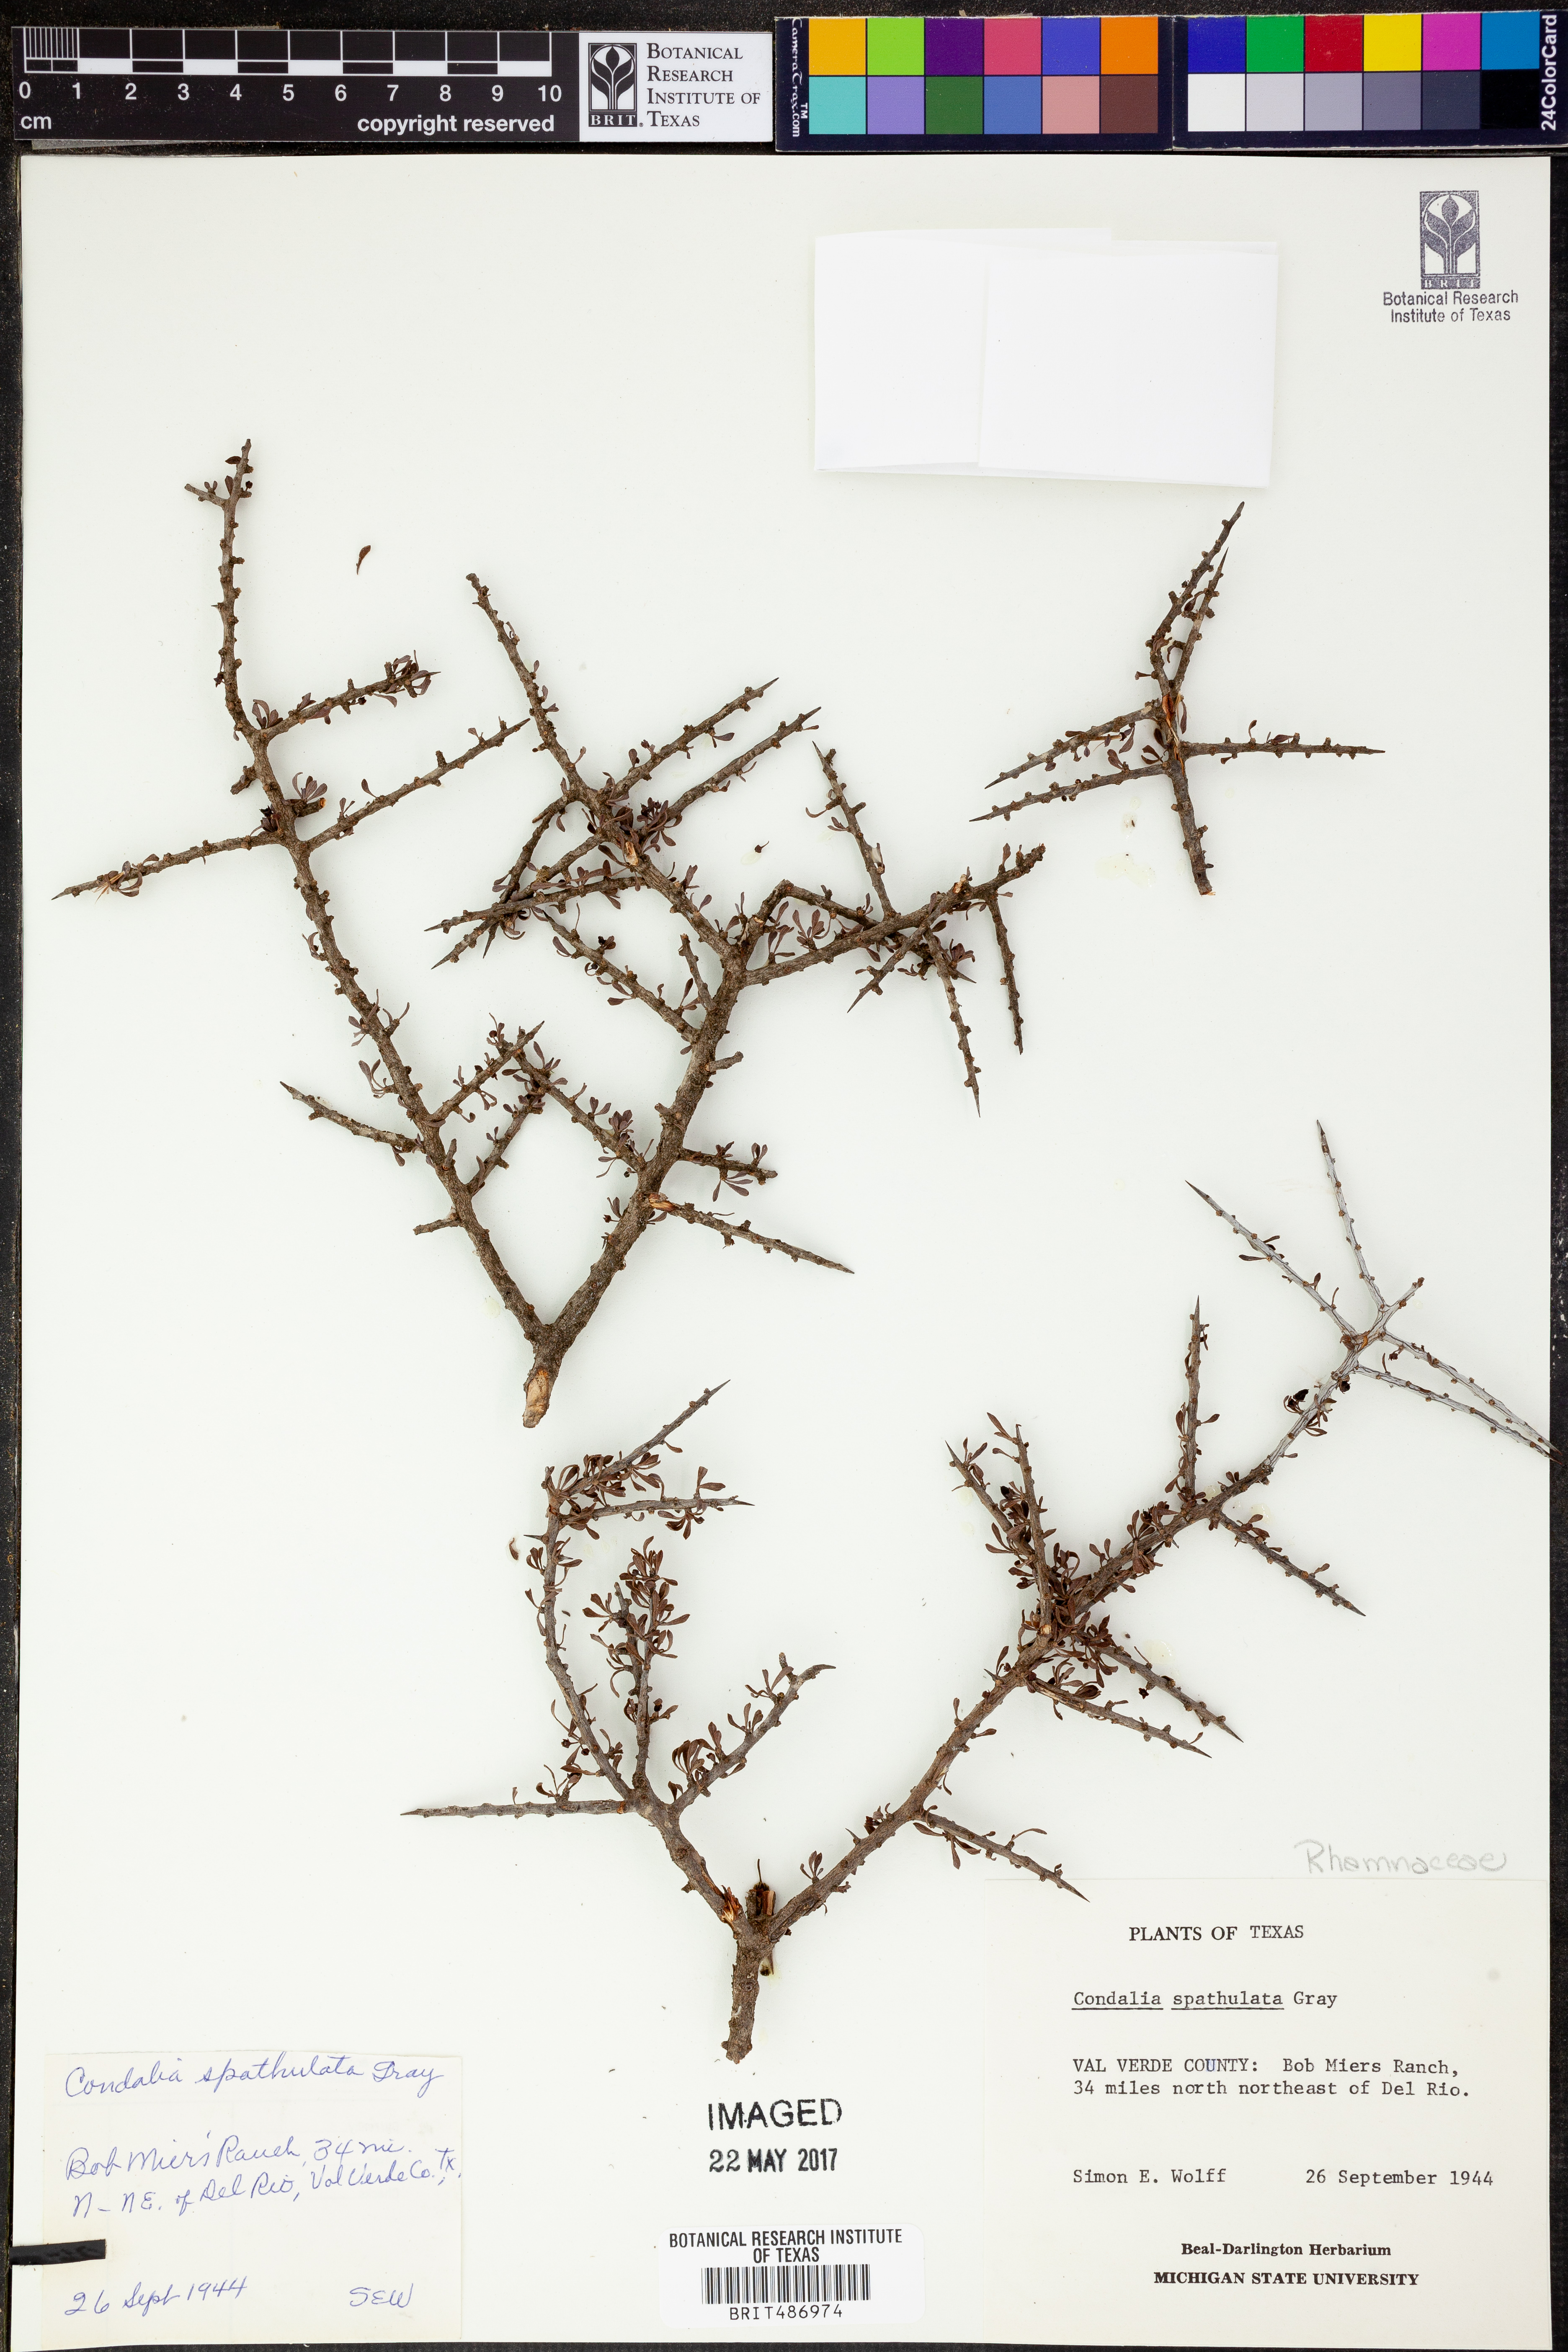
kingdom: Plantae
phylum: Tracheophyta
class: Magnoliopsida
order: Rosales
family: Rhamnaceae
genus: Condalia
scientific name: Condalia spathulata
